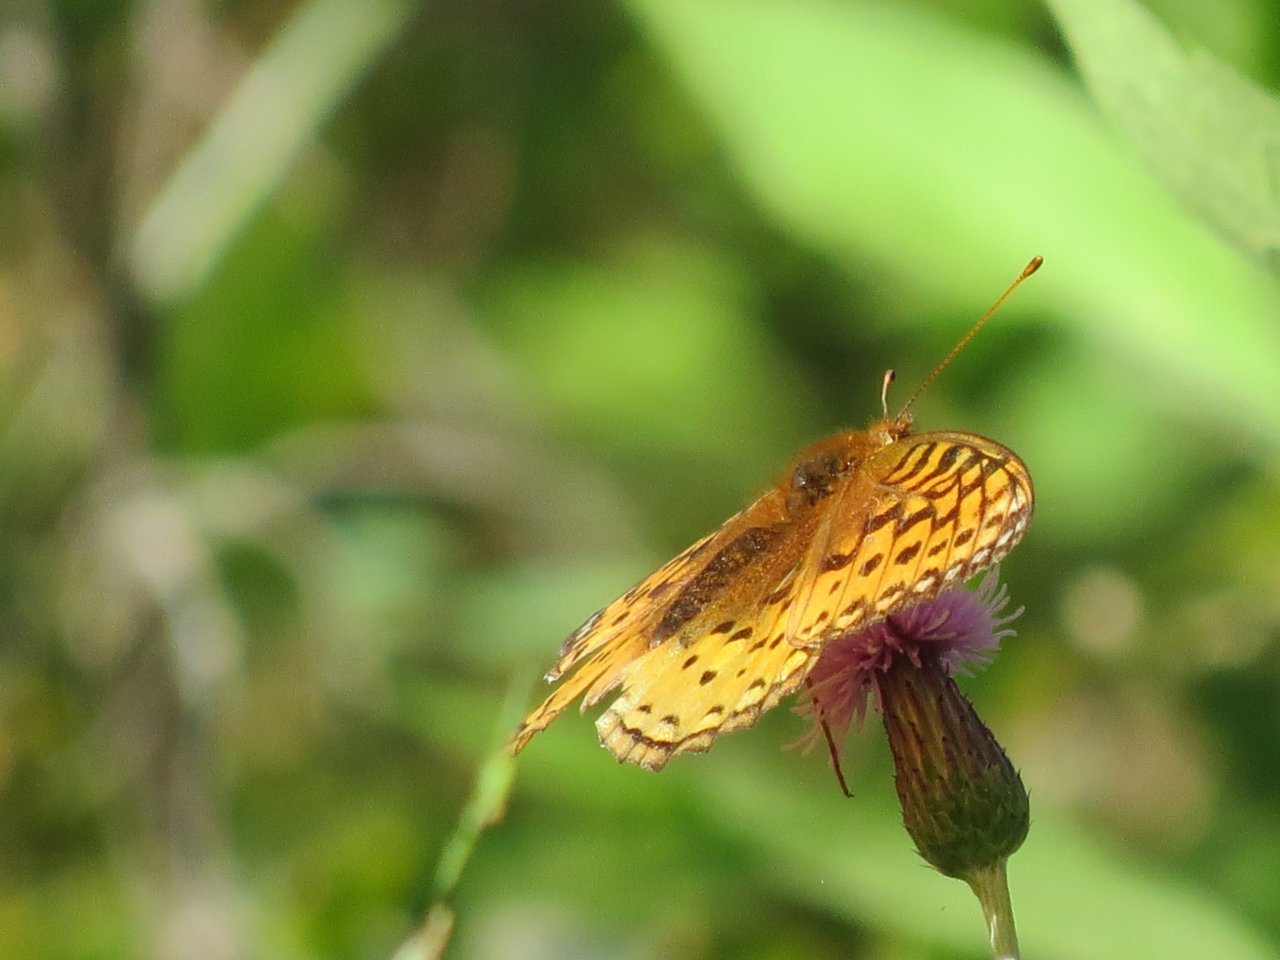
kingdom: Animalia
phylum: Arthropoda
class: Insecta
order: Lepidoptera
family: Nymphalidae
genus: Speyeria
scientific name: Speyeria cybele
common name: Great Spangled Fritillary
